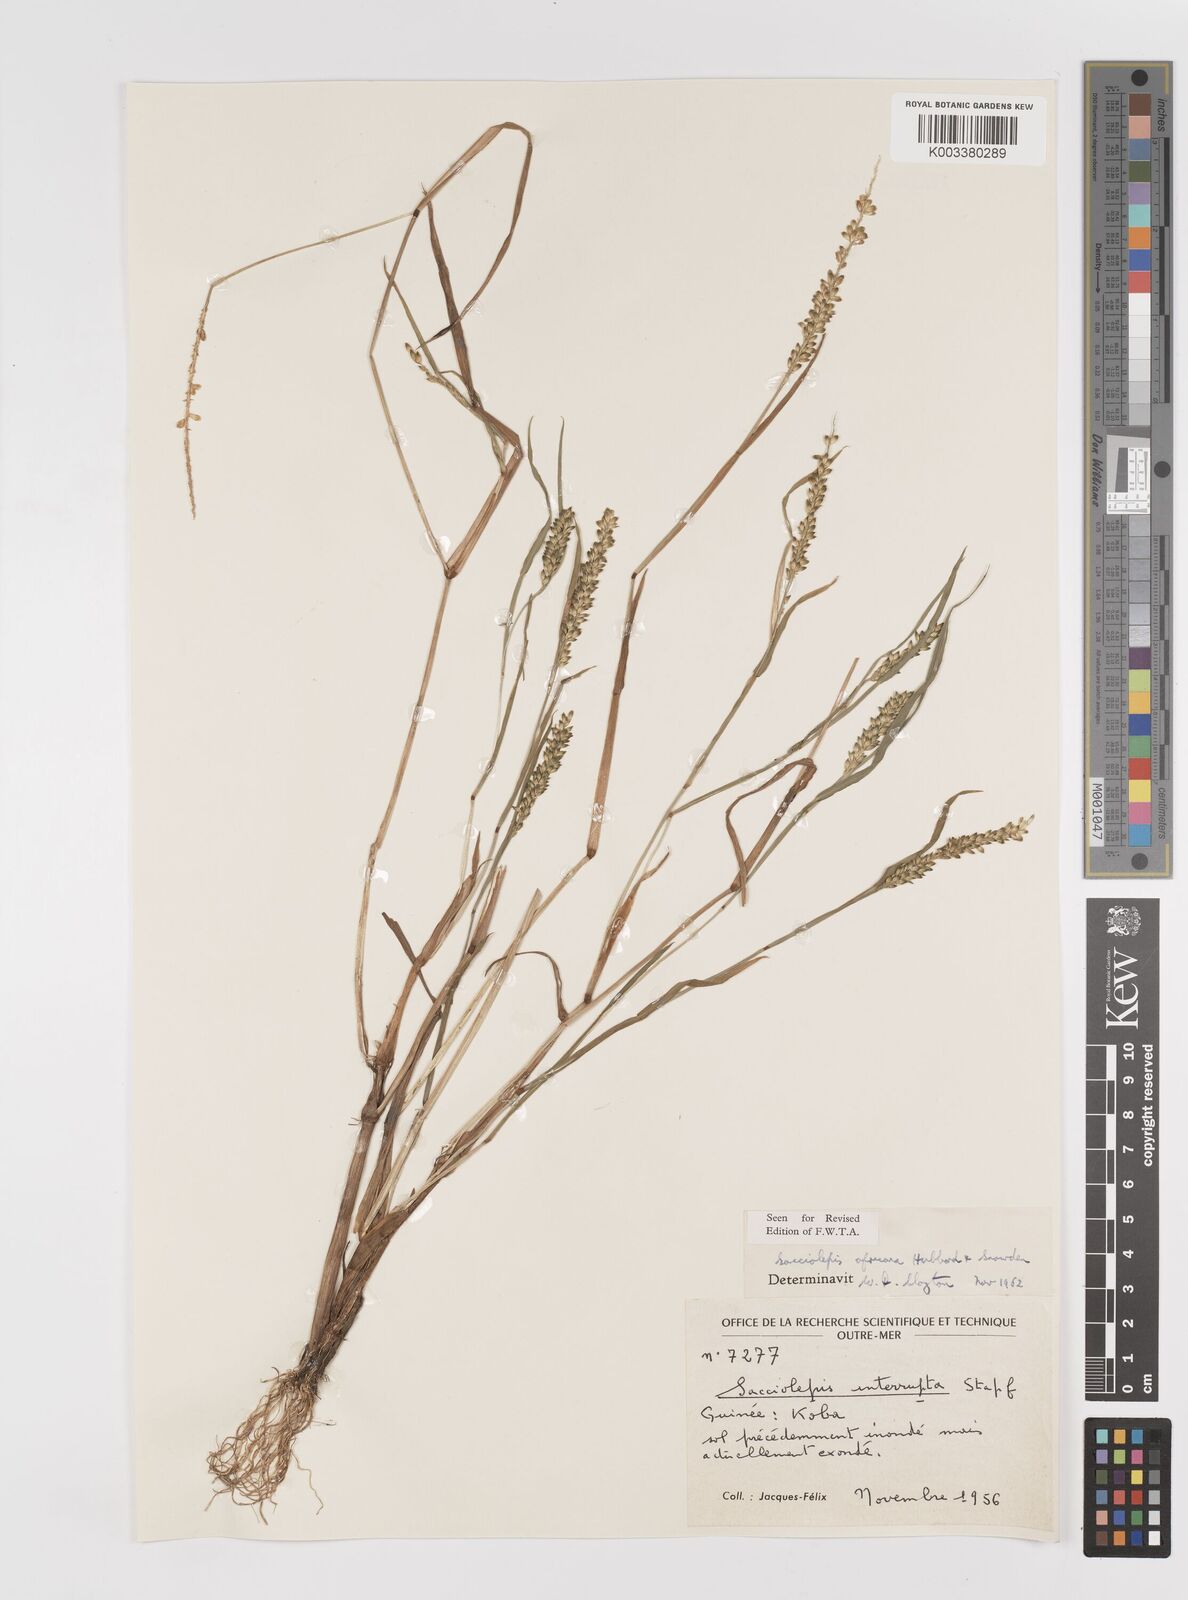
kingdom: Plantae
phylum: Tracheophyta
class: Liliopsida
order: Poales
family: Poaceae
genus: Sacciolepis
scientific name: Sacciolepis africana
